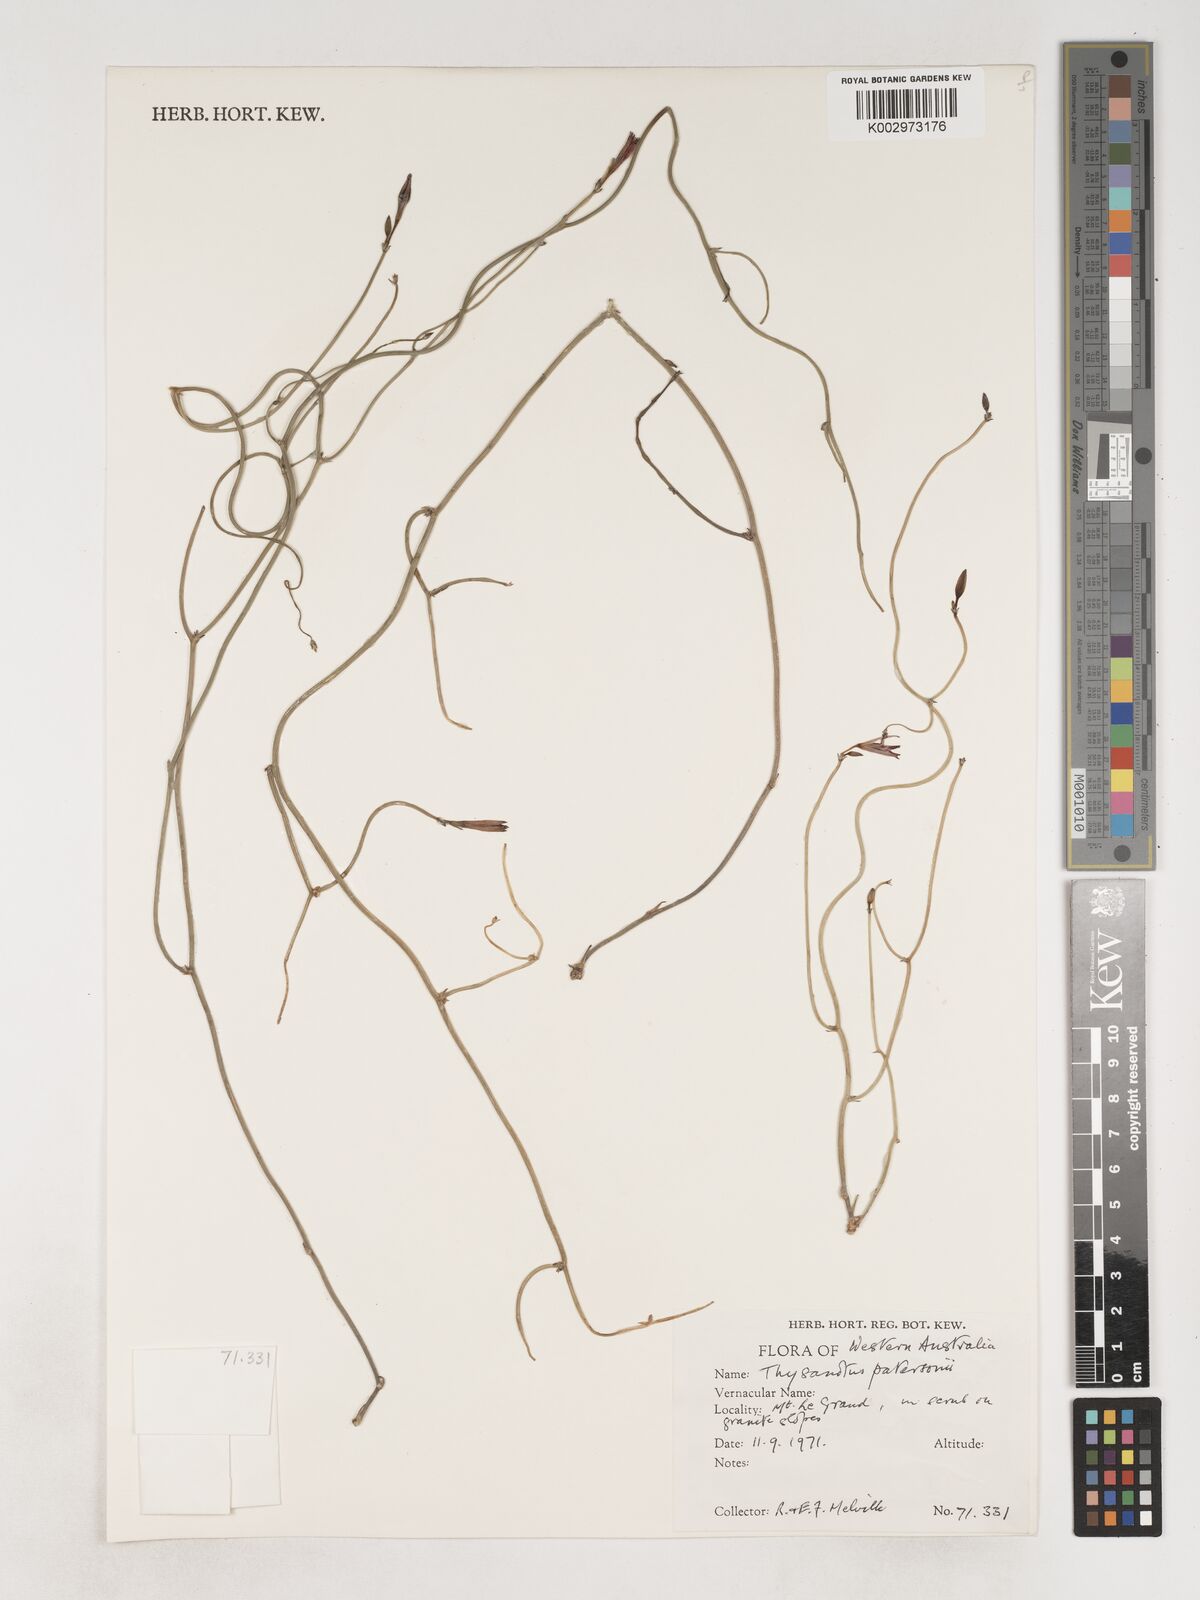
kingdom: Plantae
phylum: Tracheophyta
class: Liliopsida
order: Asparagales
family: Asparagaceae
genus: Thysanotus
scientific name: Thysanotus patersonii
